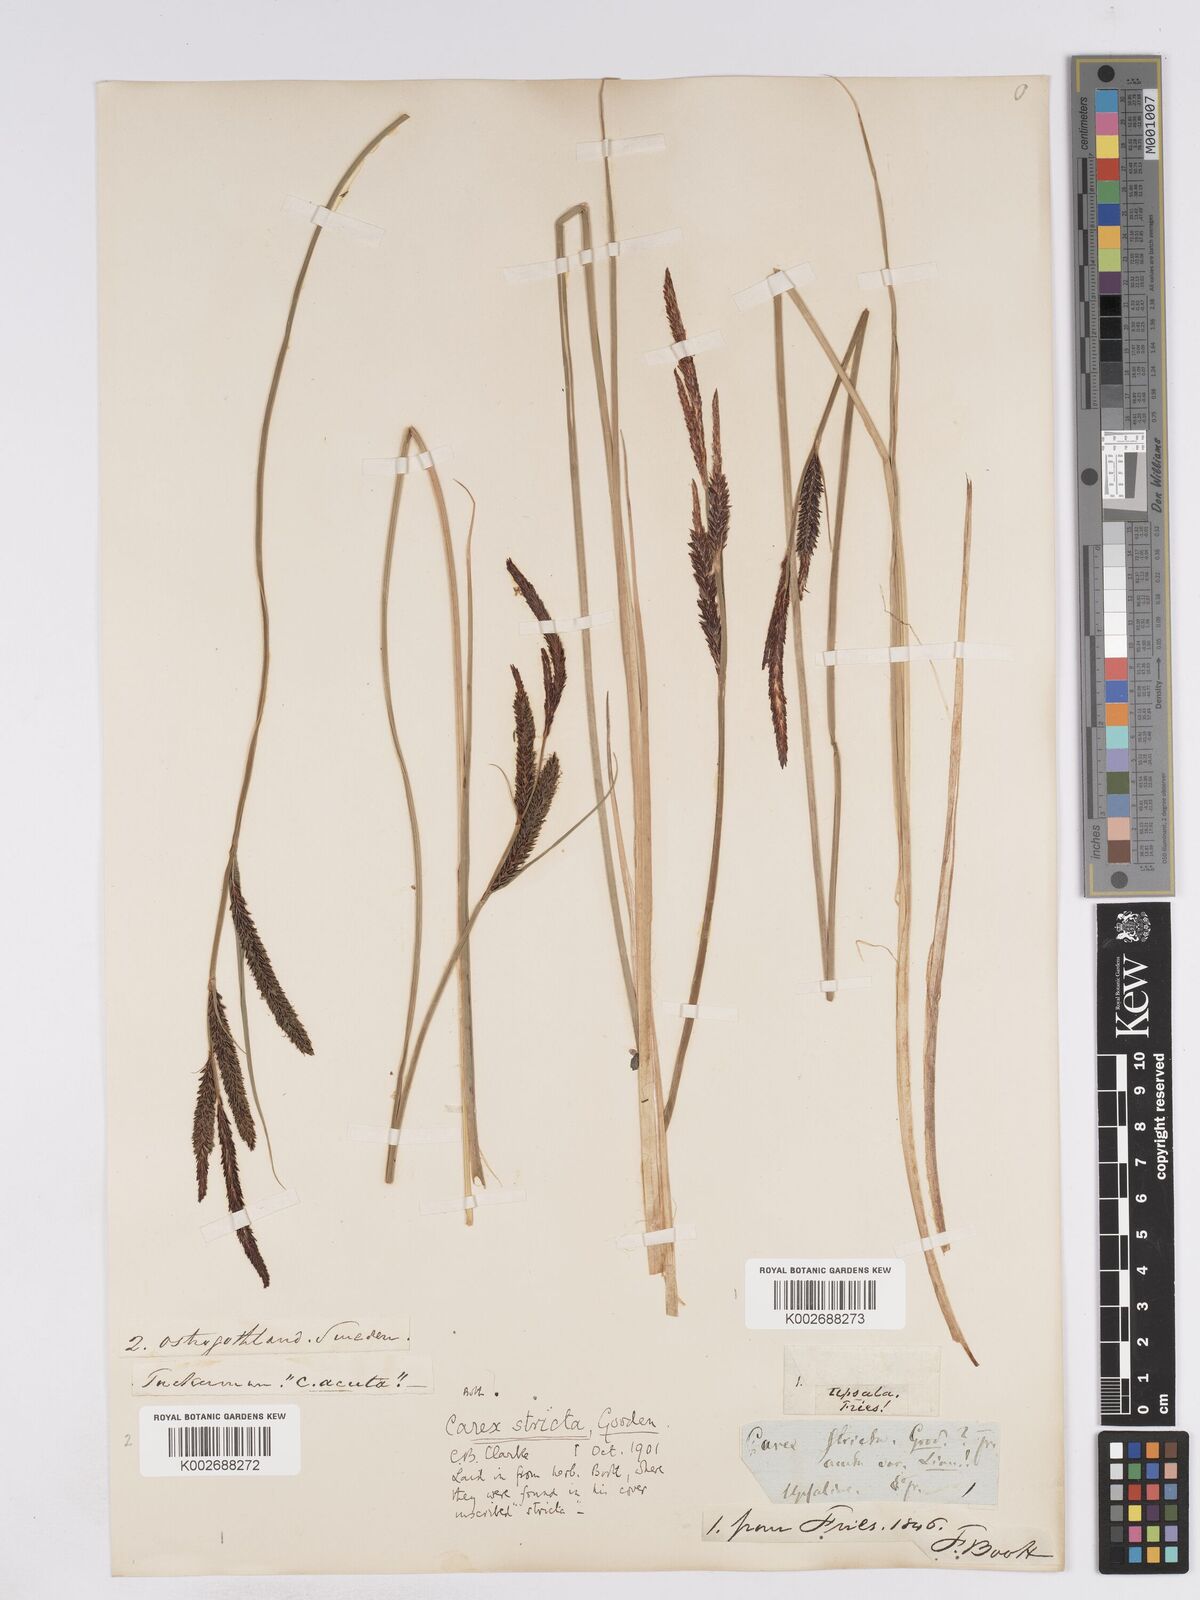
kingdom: Plantae
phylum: Tracheophyta
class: Liliopsida
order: Poales
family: Cyperaceae
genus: Carex
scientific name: Carex elata
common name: Tufted sedge
